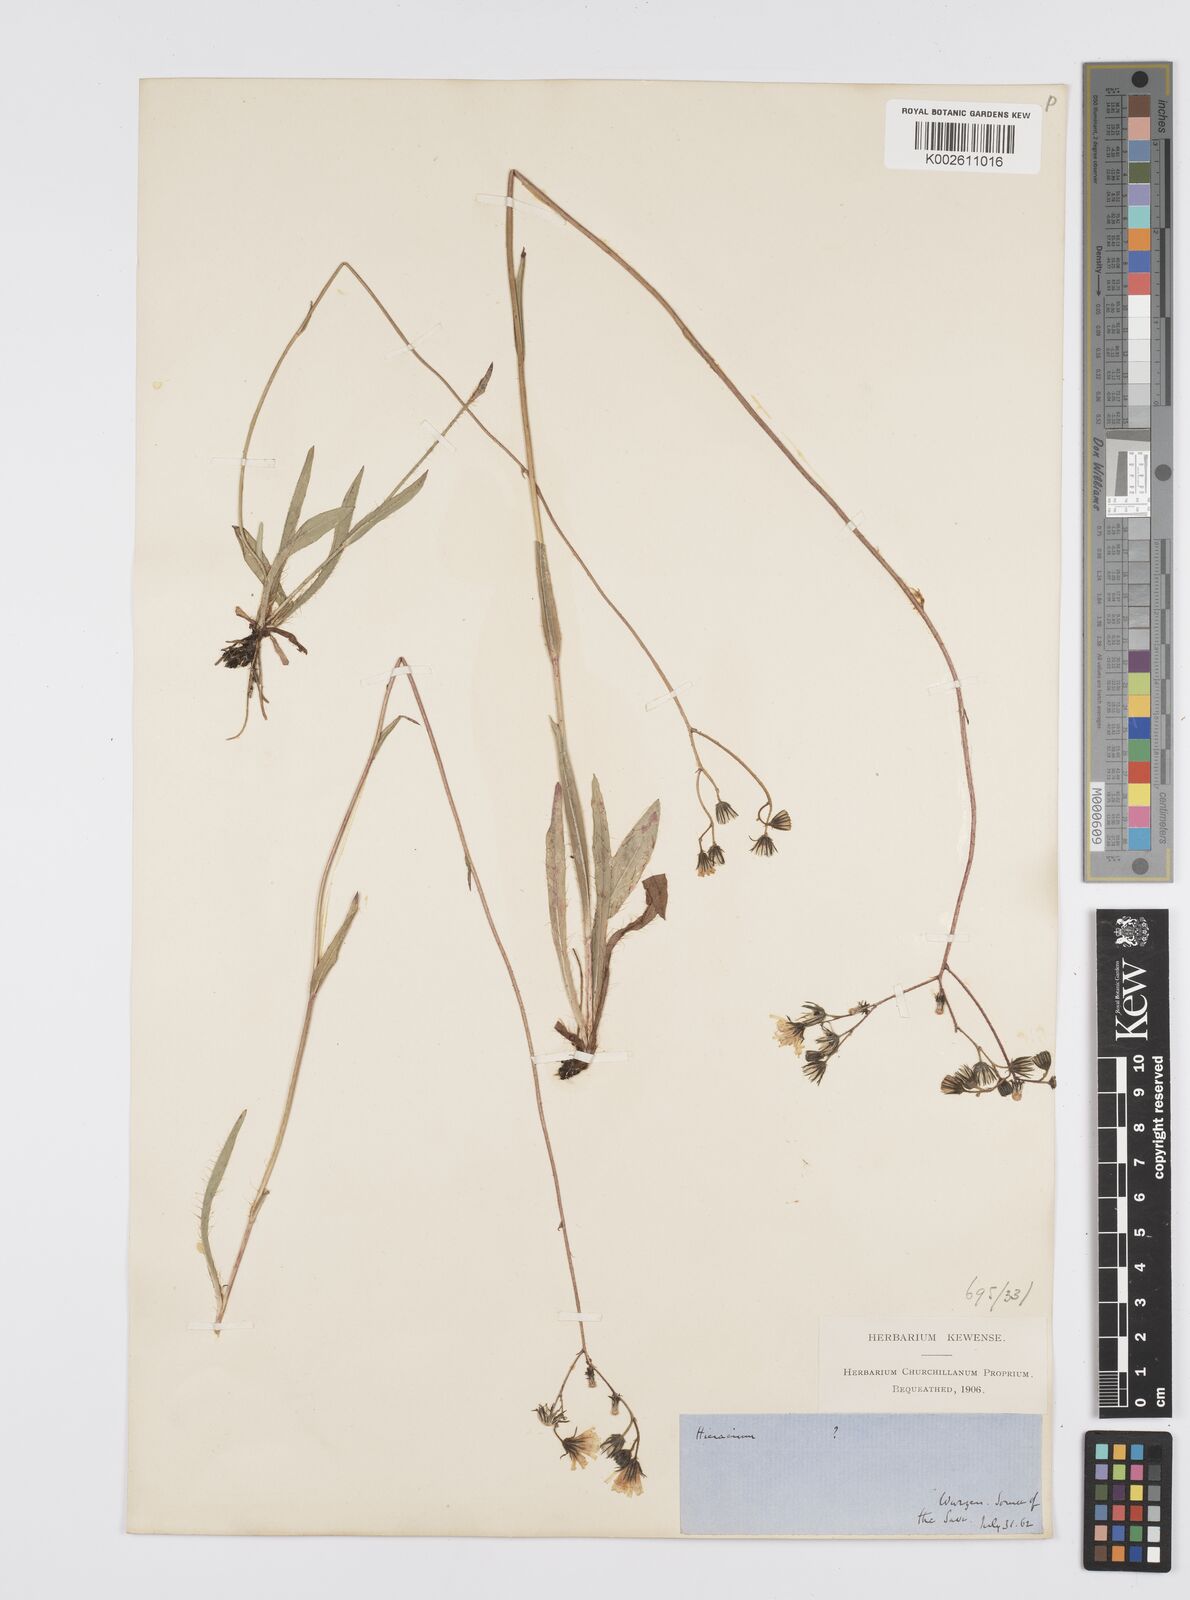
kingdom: Plantae
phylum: Tracheophyta
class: Magnoliopsida
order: Asterales
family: Asteraceae
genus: Pilosella
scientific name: Pilosella piloselloides
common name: Glaucous king-devil
